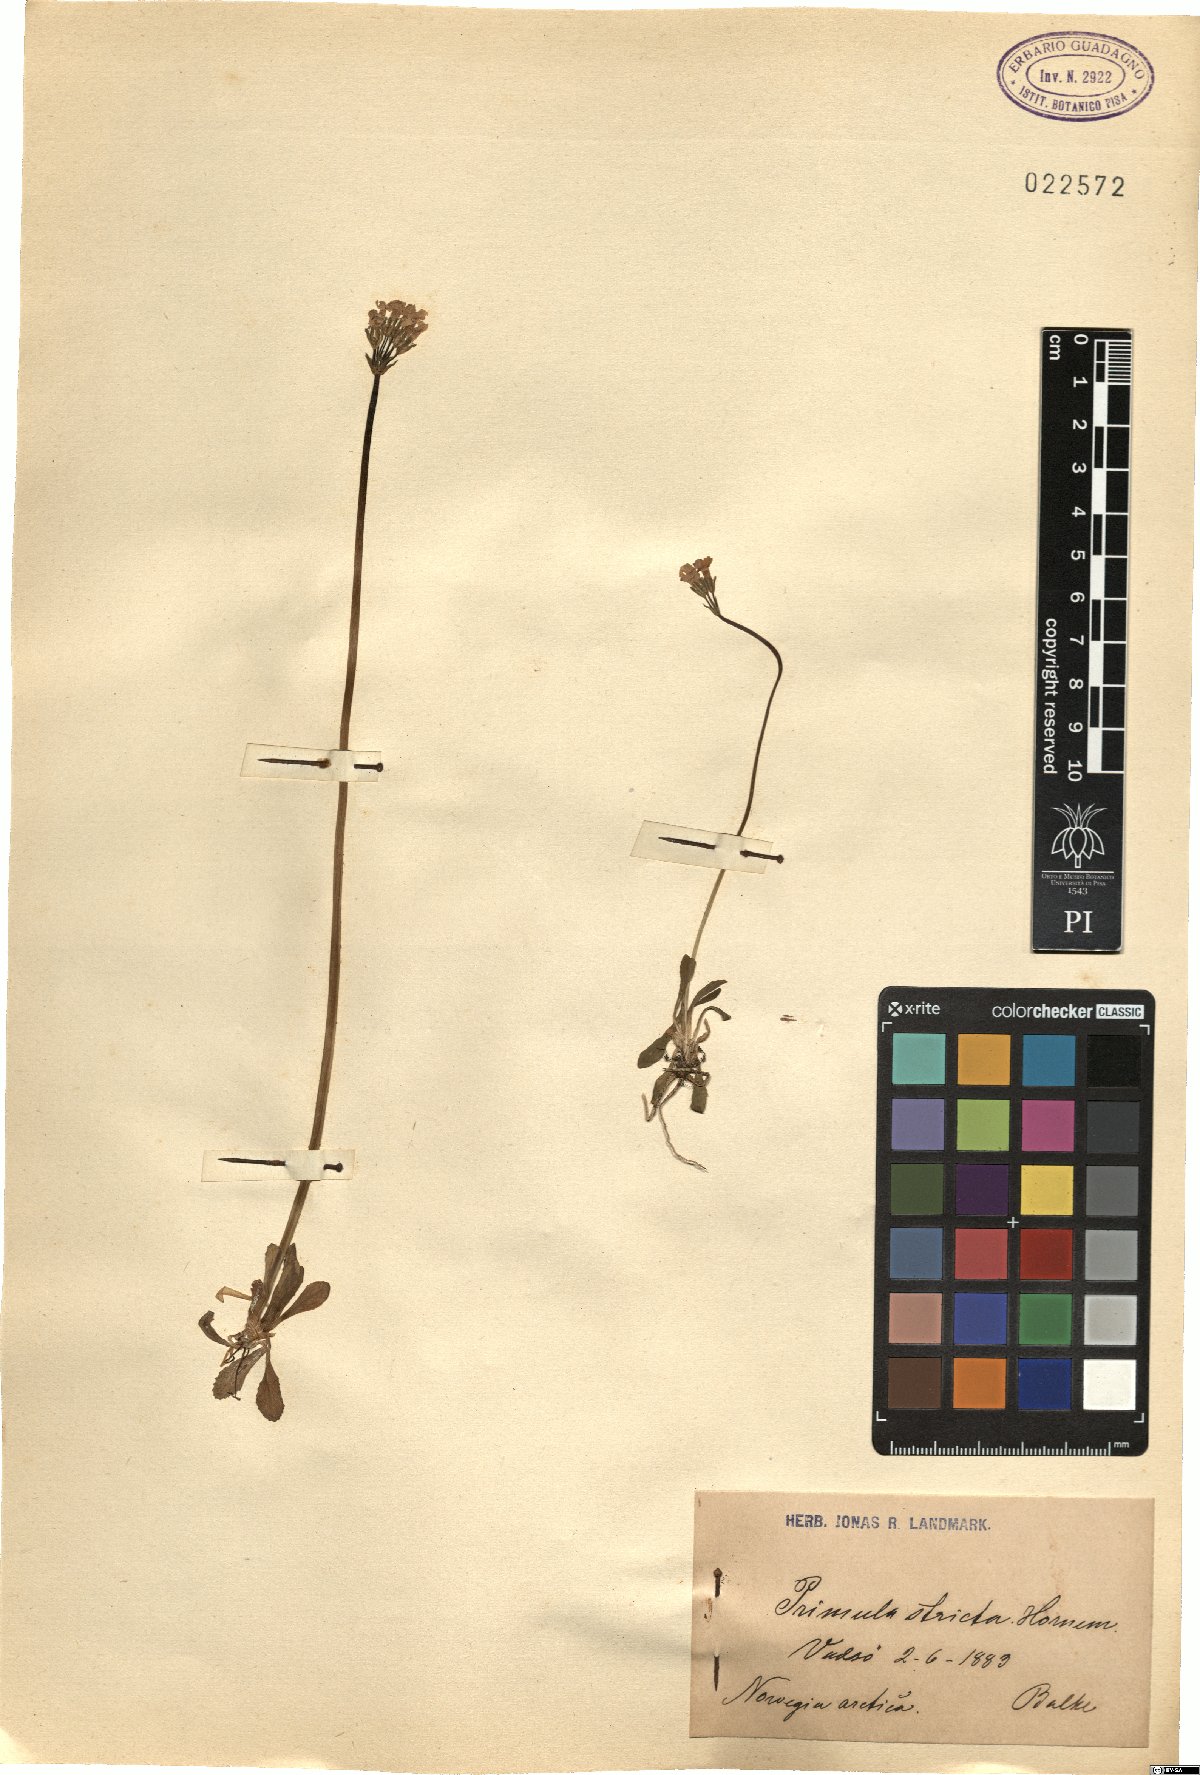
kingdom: Plantae
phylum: Tracheophyta
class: Magnoliopsida
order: Ericales
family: Primulaceae
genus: Primula
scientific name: Primula stricta
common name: Coastal primrose
